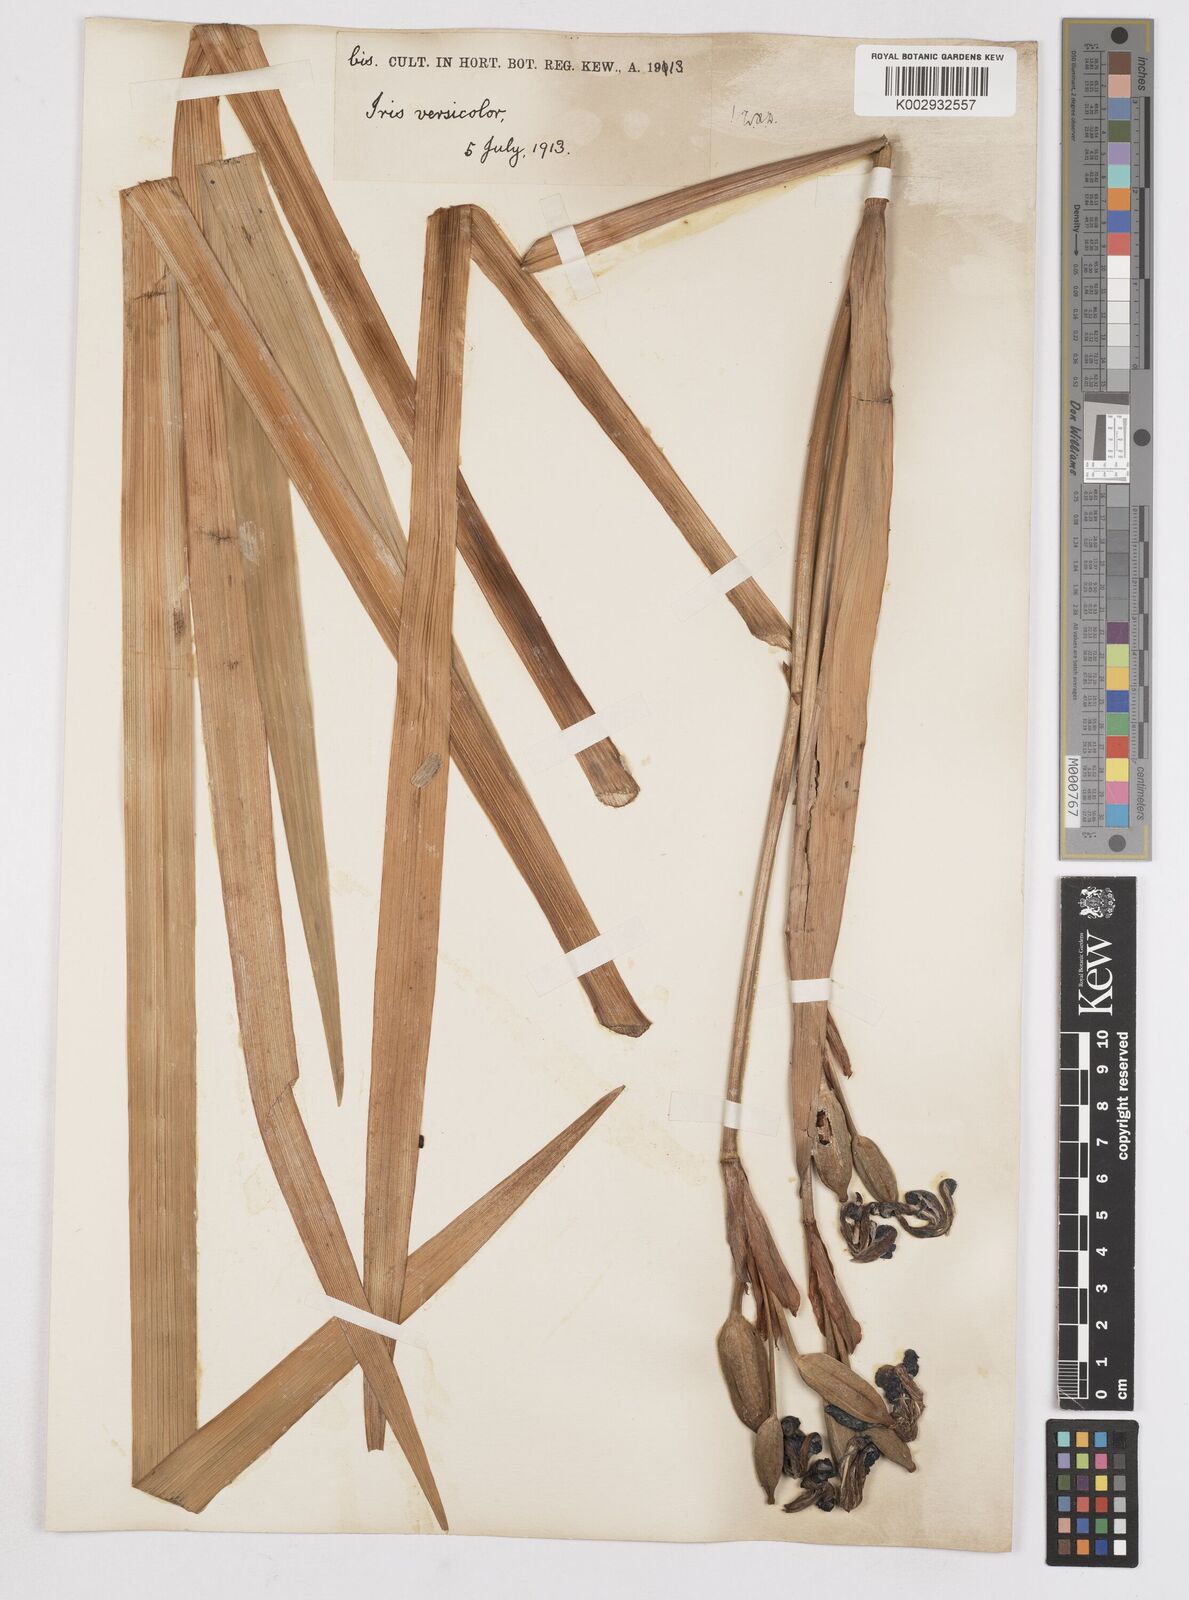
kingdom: Plantae
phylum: Tracheophyta
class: Liliopsida
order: Asparagales
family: Iridaceae
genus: Iris
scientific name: Iris versicolor
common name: Purple iris
